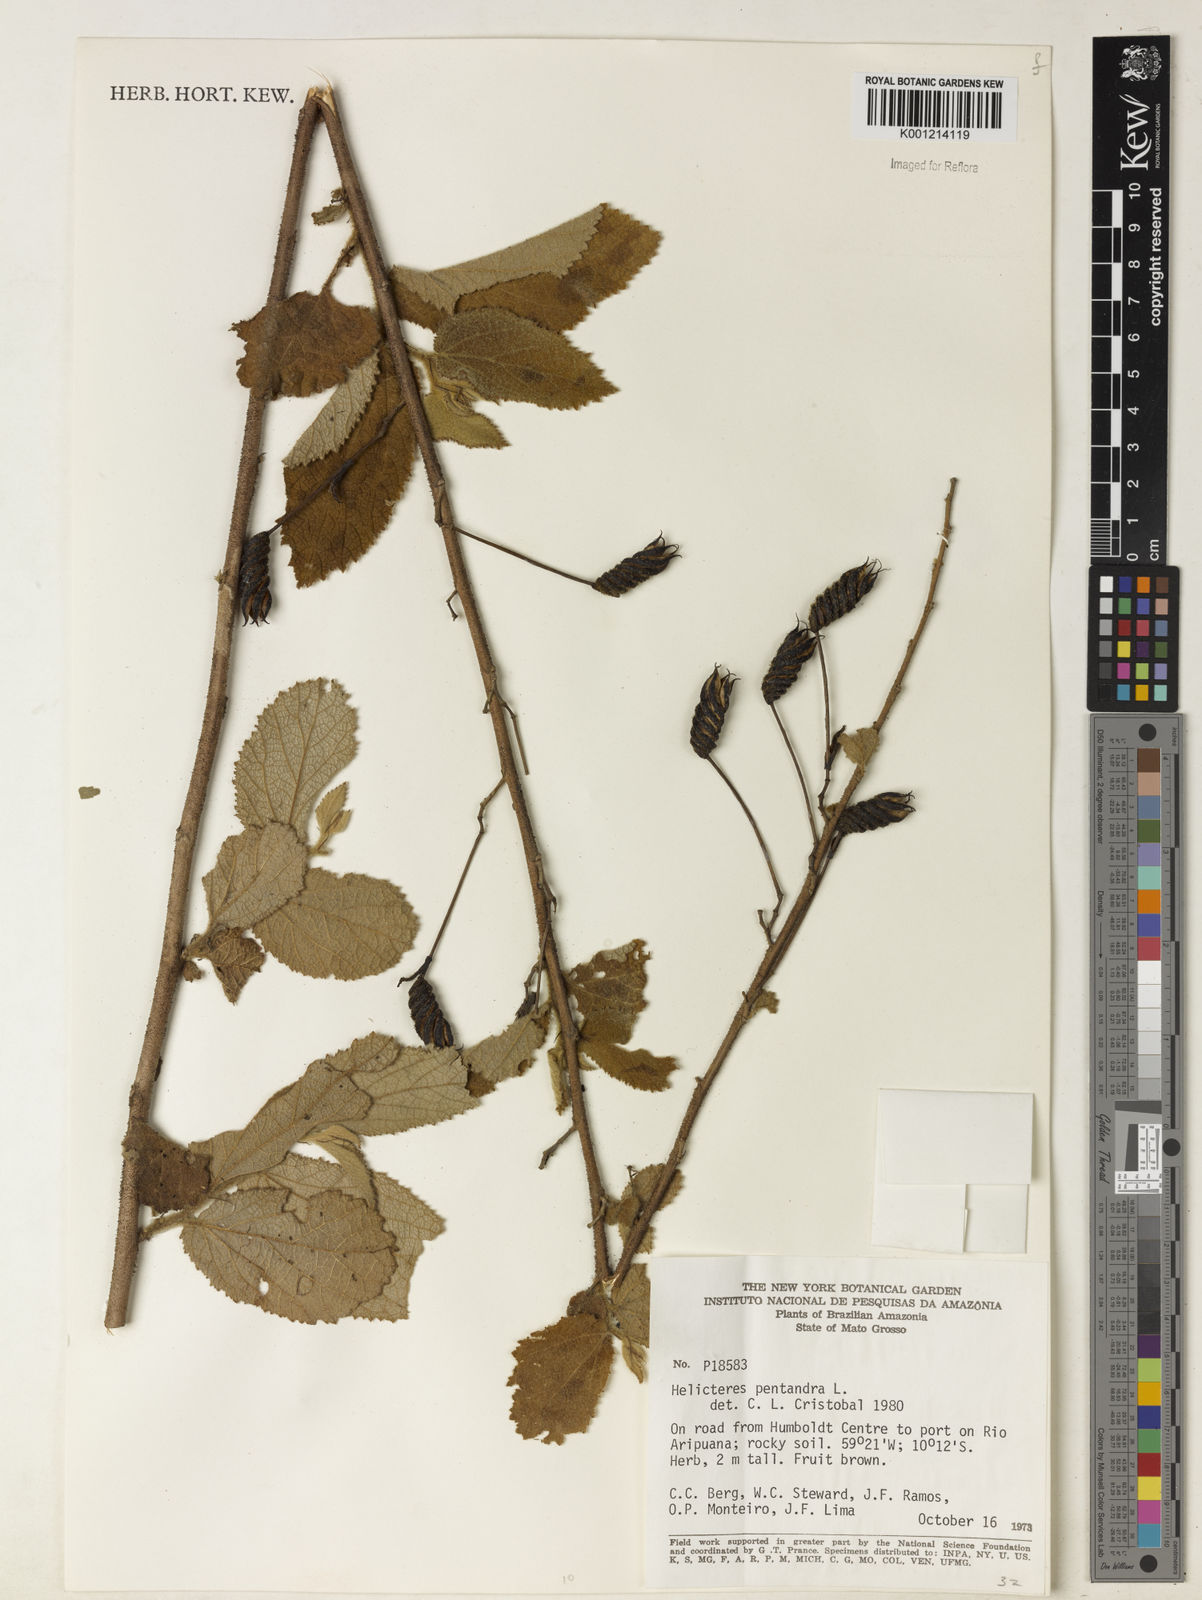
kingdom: Plantae
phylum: Tracheophyta
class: Magnoliopsida
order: Malvales
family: Malvaceae
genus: Helicteres
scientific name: Helicteres pentandra
